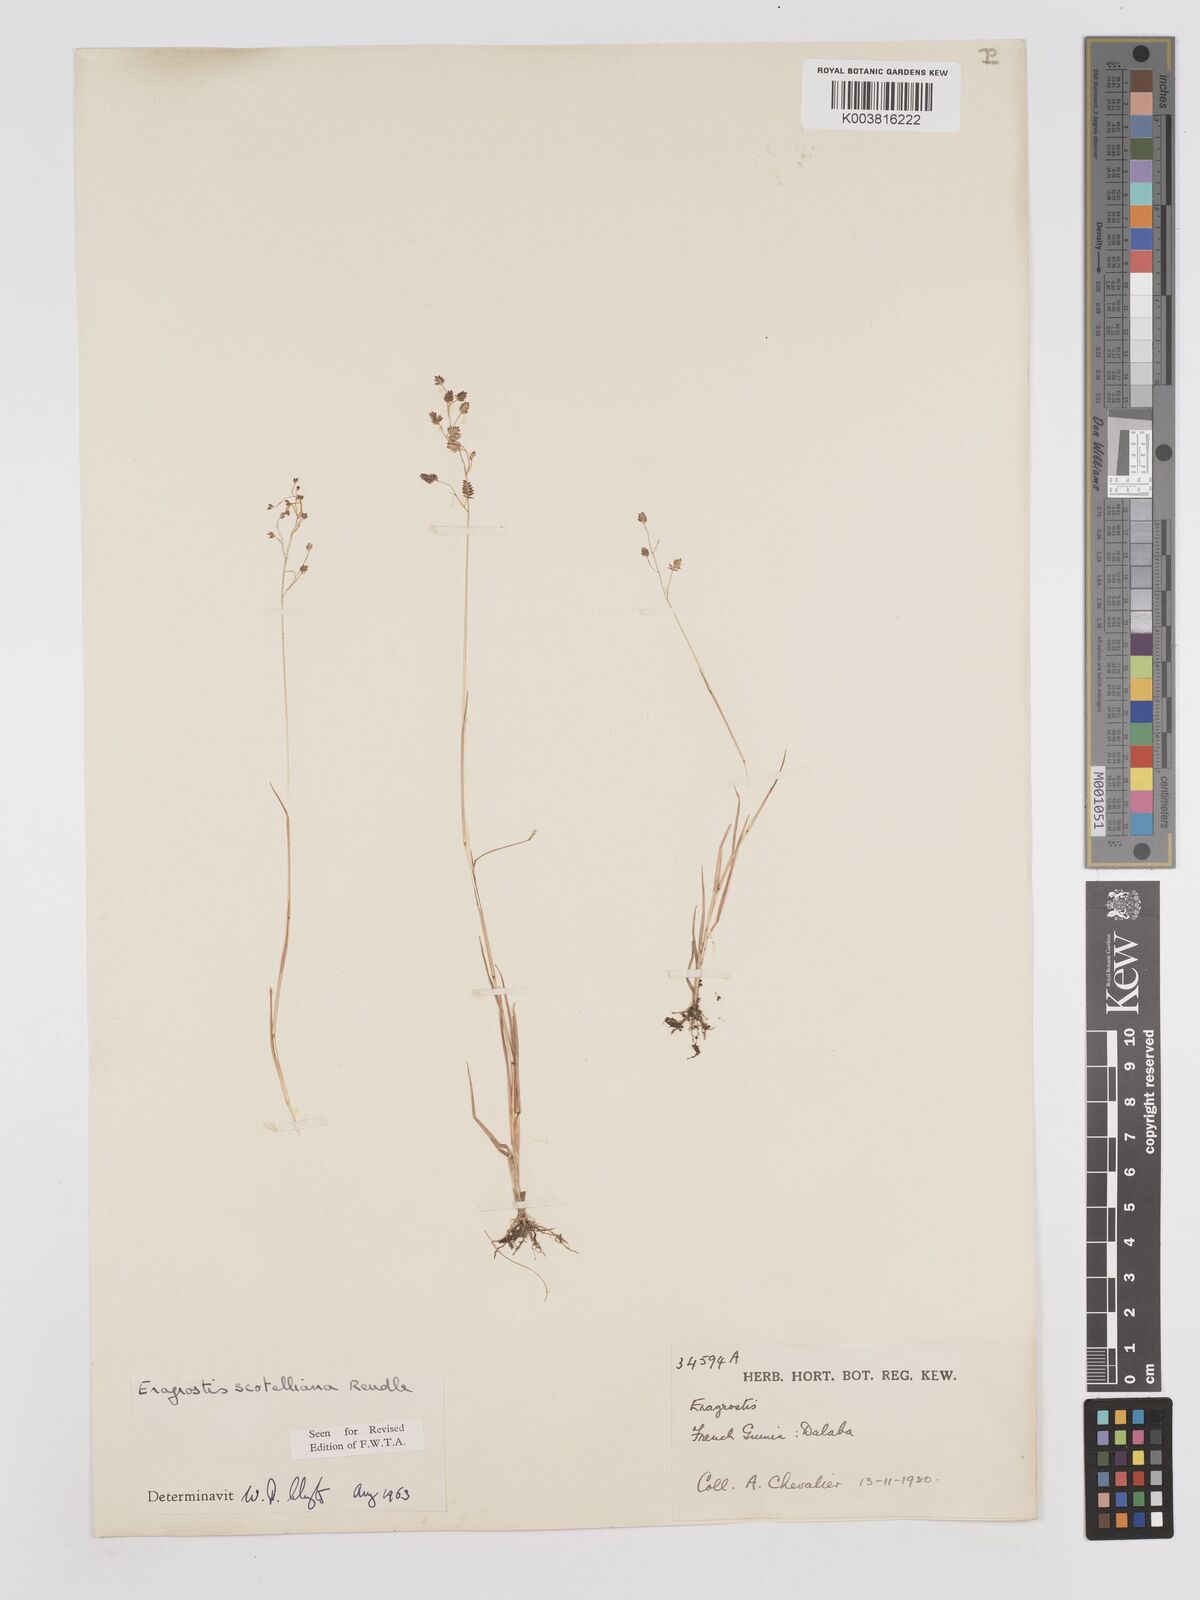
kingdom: Plantae
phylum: Tracheophyta
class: Liliopsida
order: Poales
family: Poaceae
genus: Eragrostis
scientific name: Eragrostis scotelliana
